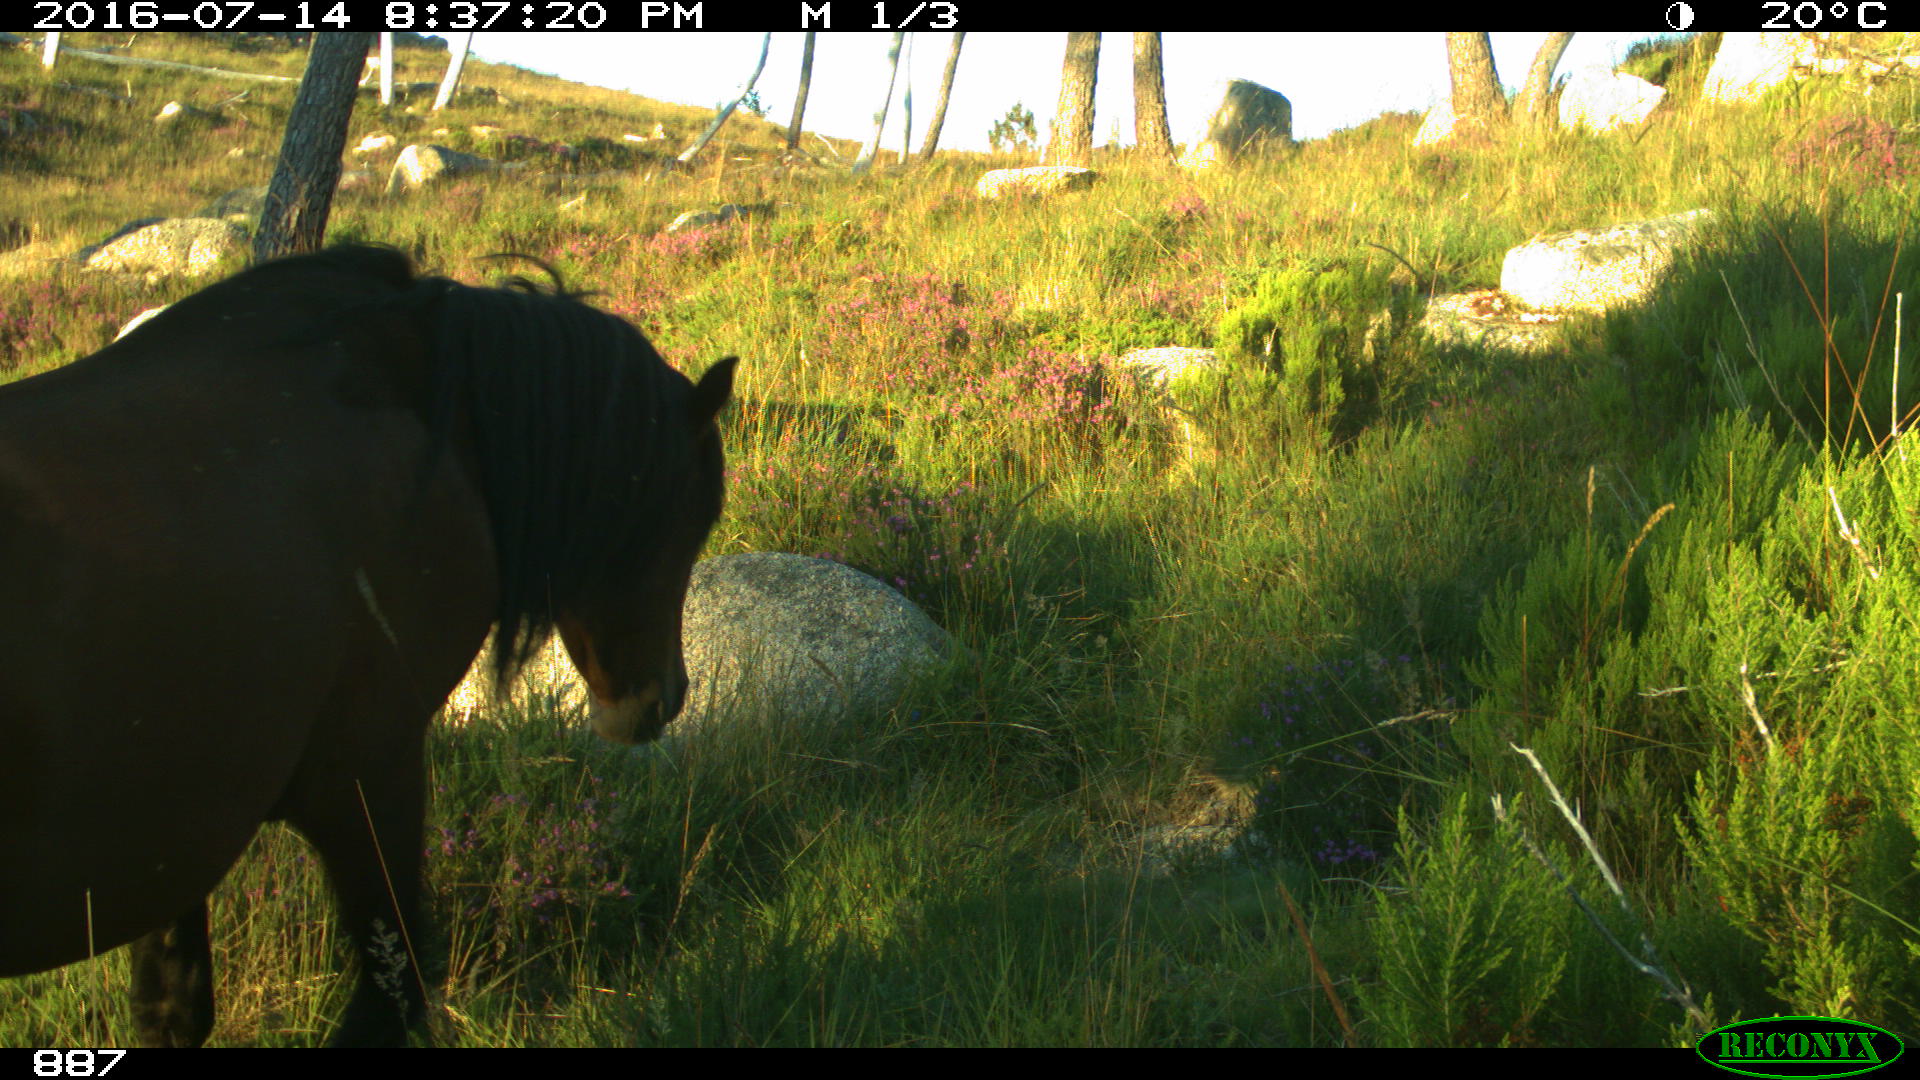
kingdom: Animalia
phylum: Chordata
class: Mammalia
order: Perissodactyla
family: Equidae
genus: Equus
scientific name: Equus caballus
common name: Horse
